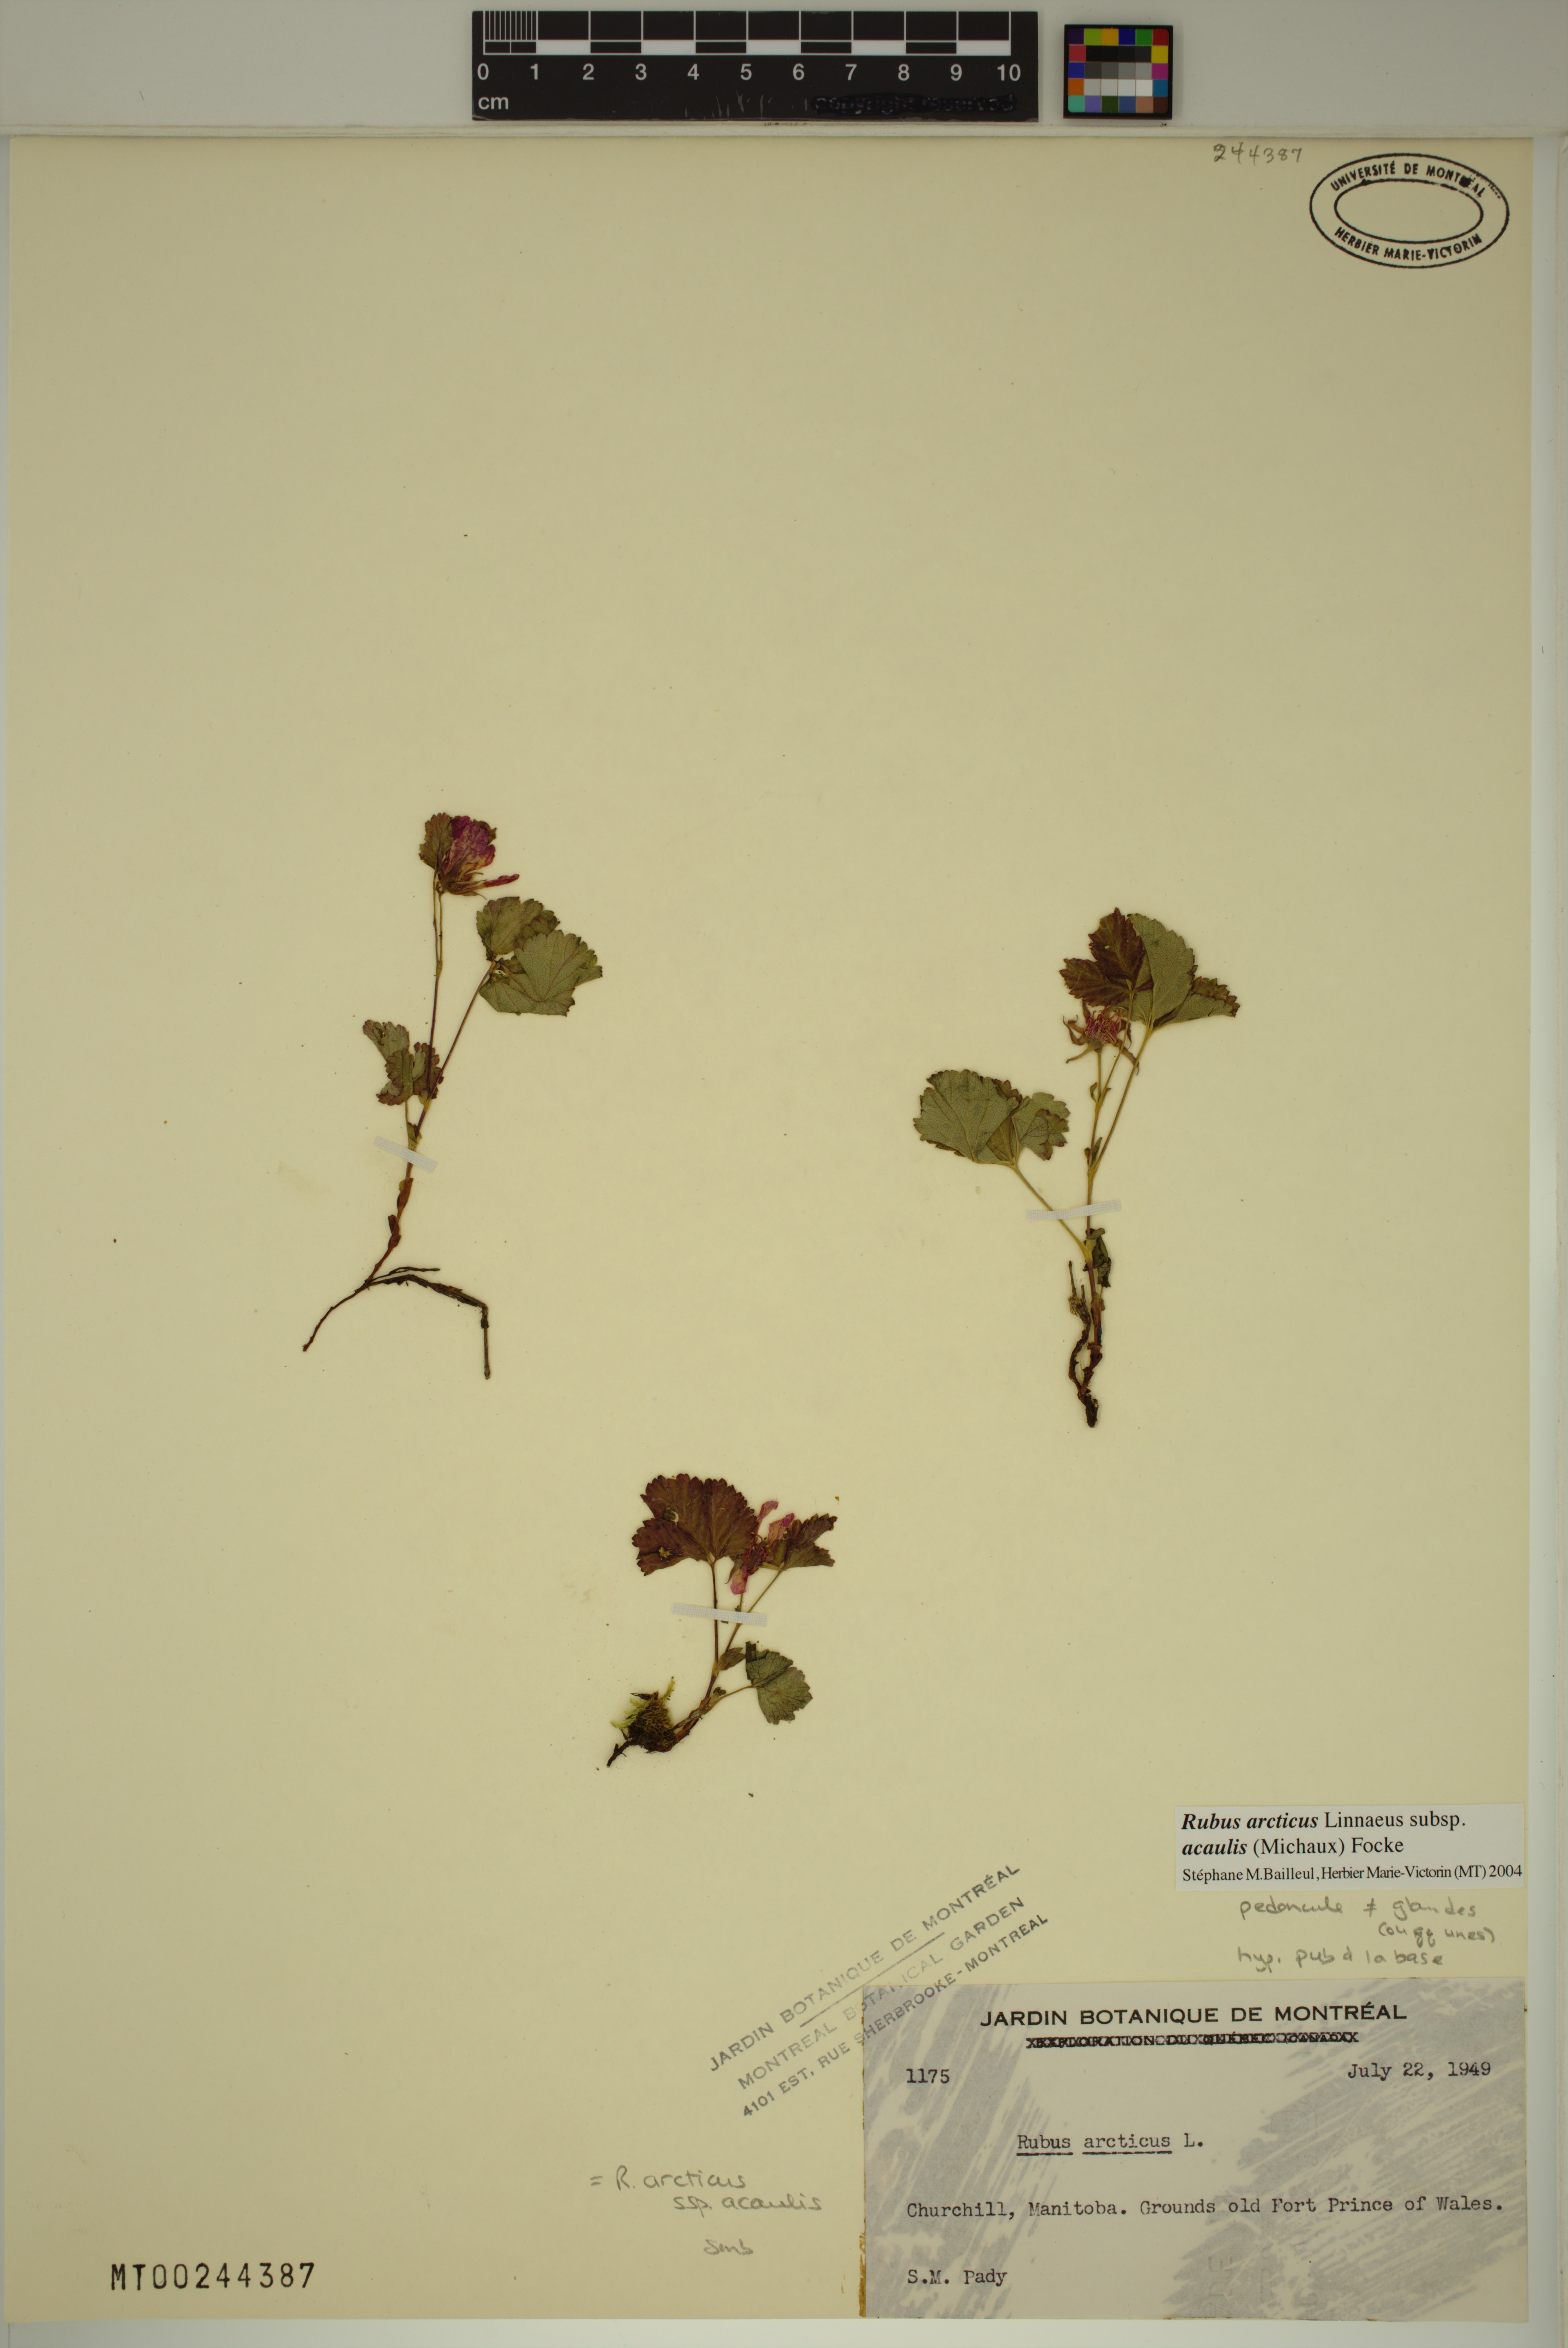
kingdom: Plantae
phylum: Tracheophyta
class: Magnoliopsida
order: Rosales
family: Rosaceae
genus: Rubus
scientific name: Rubus arcticus
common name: Arctic bramble
